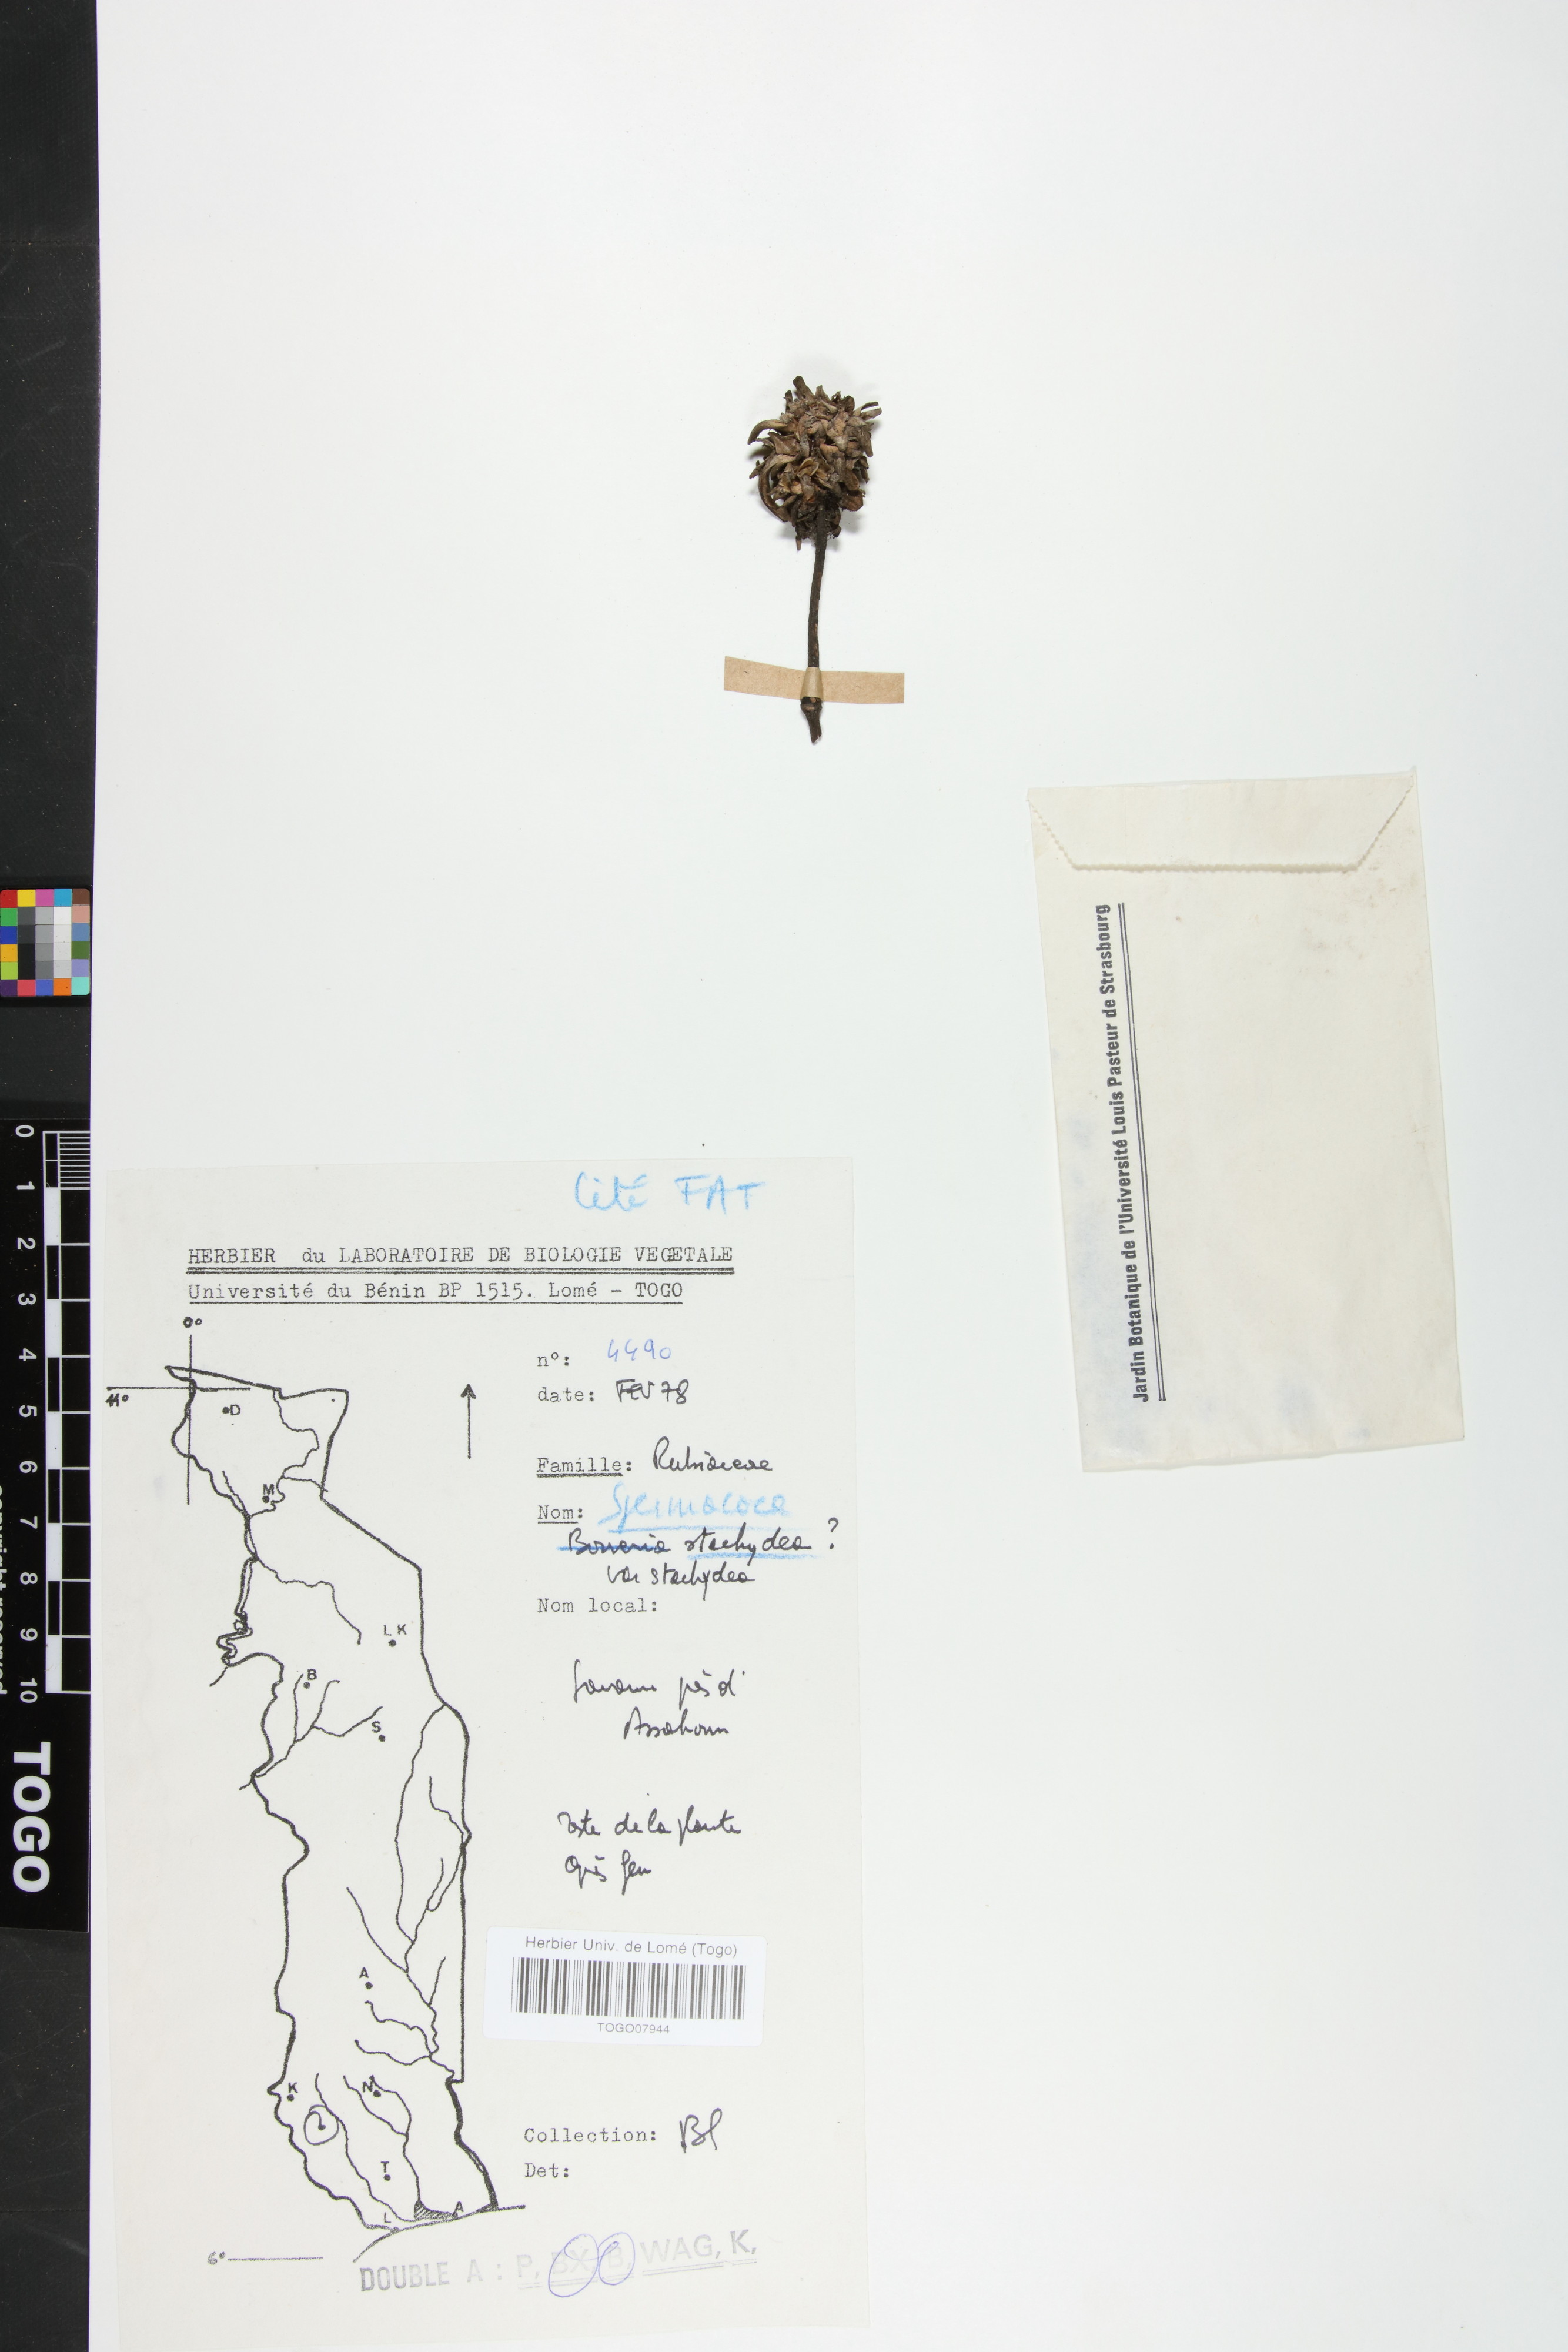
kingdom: Plantae
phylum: Tracheophyta
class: Magnoliopsida
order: Gentianales
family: Rubiaceae
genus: Spermacoce
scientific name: Spermacoce stachydea
